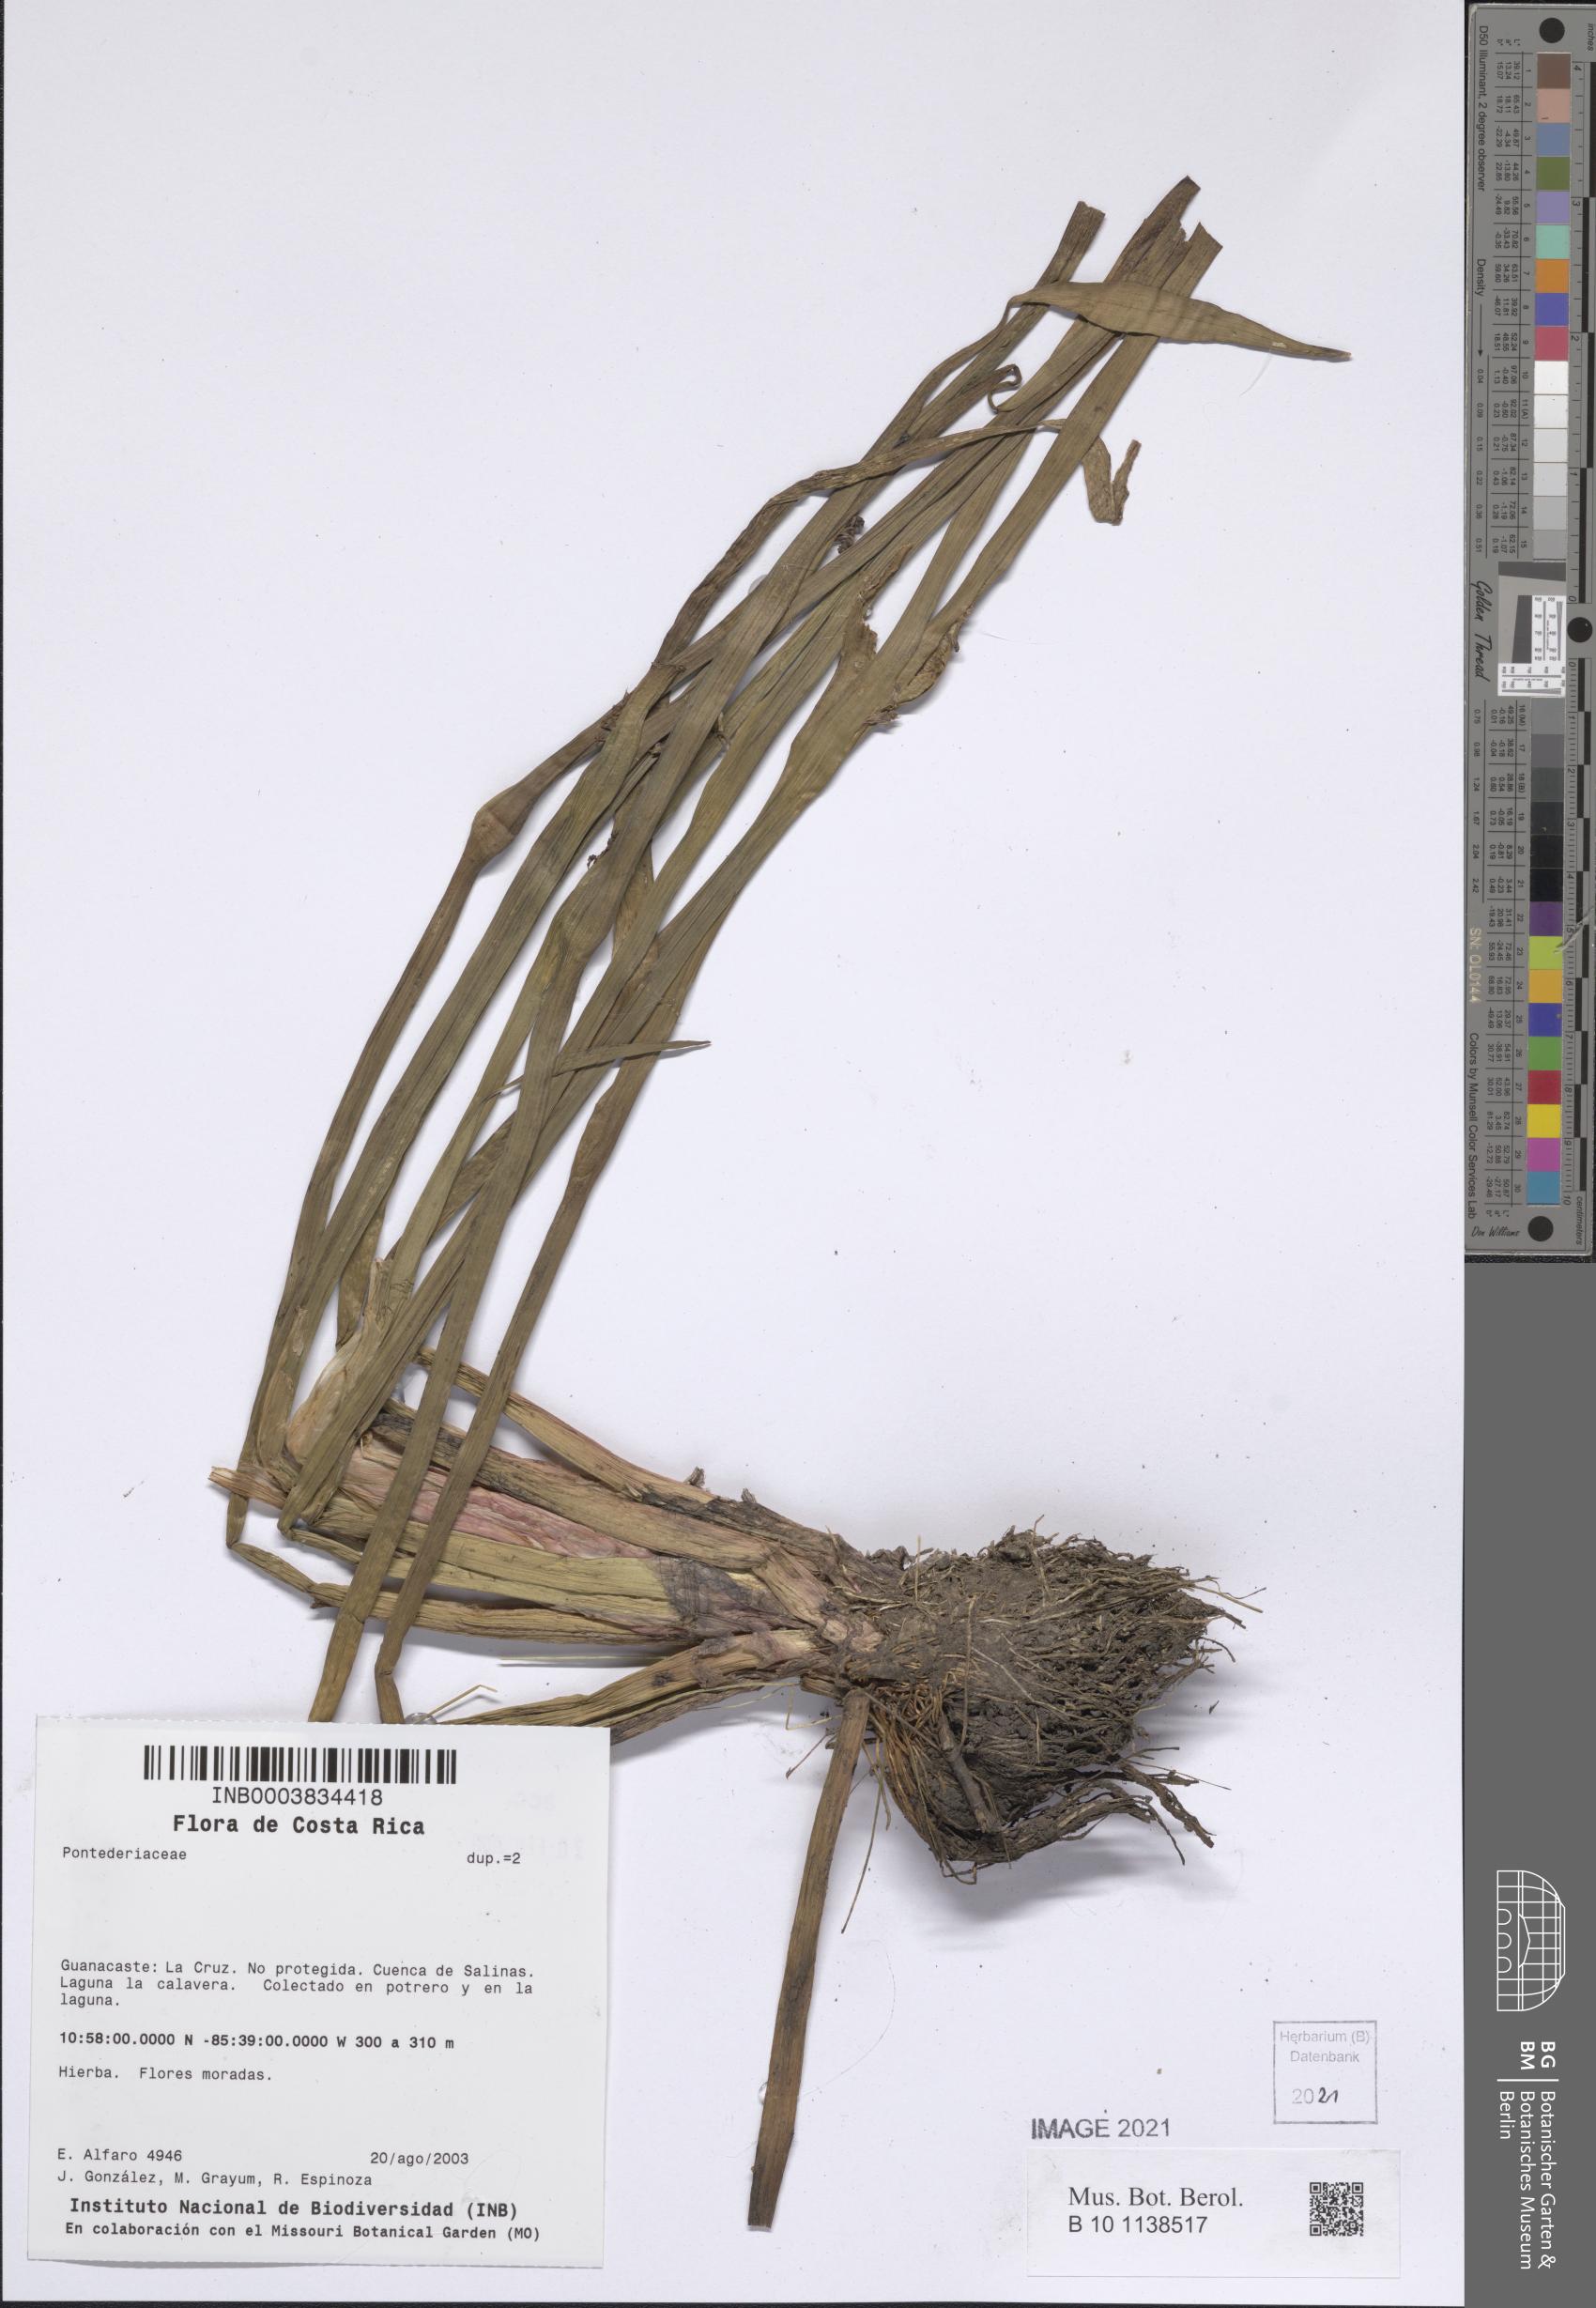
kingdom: Plantae
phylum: Tracheophyta
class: Liliopsida
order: Commelinales
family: Pontederiaceae
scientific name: Pontederiaceae
